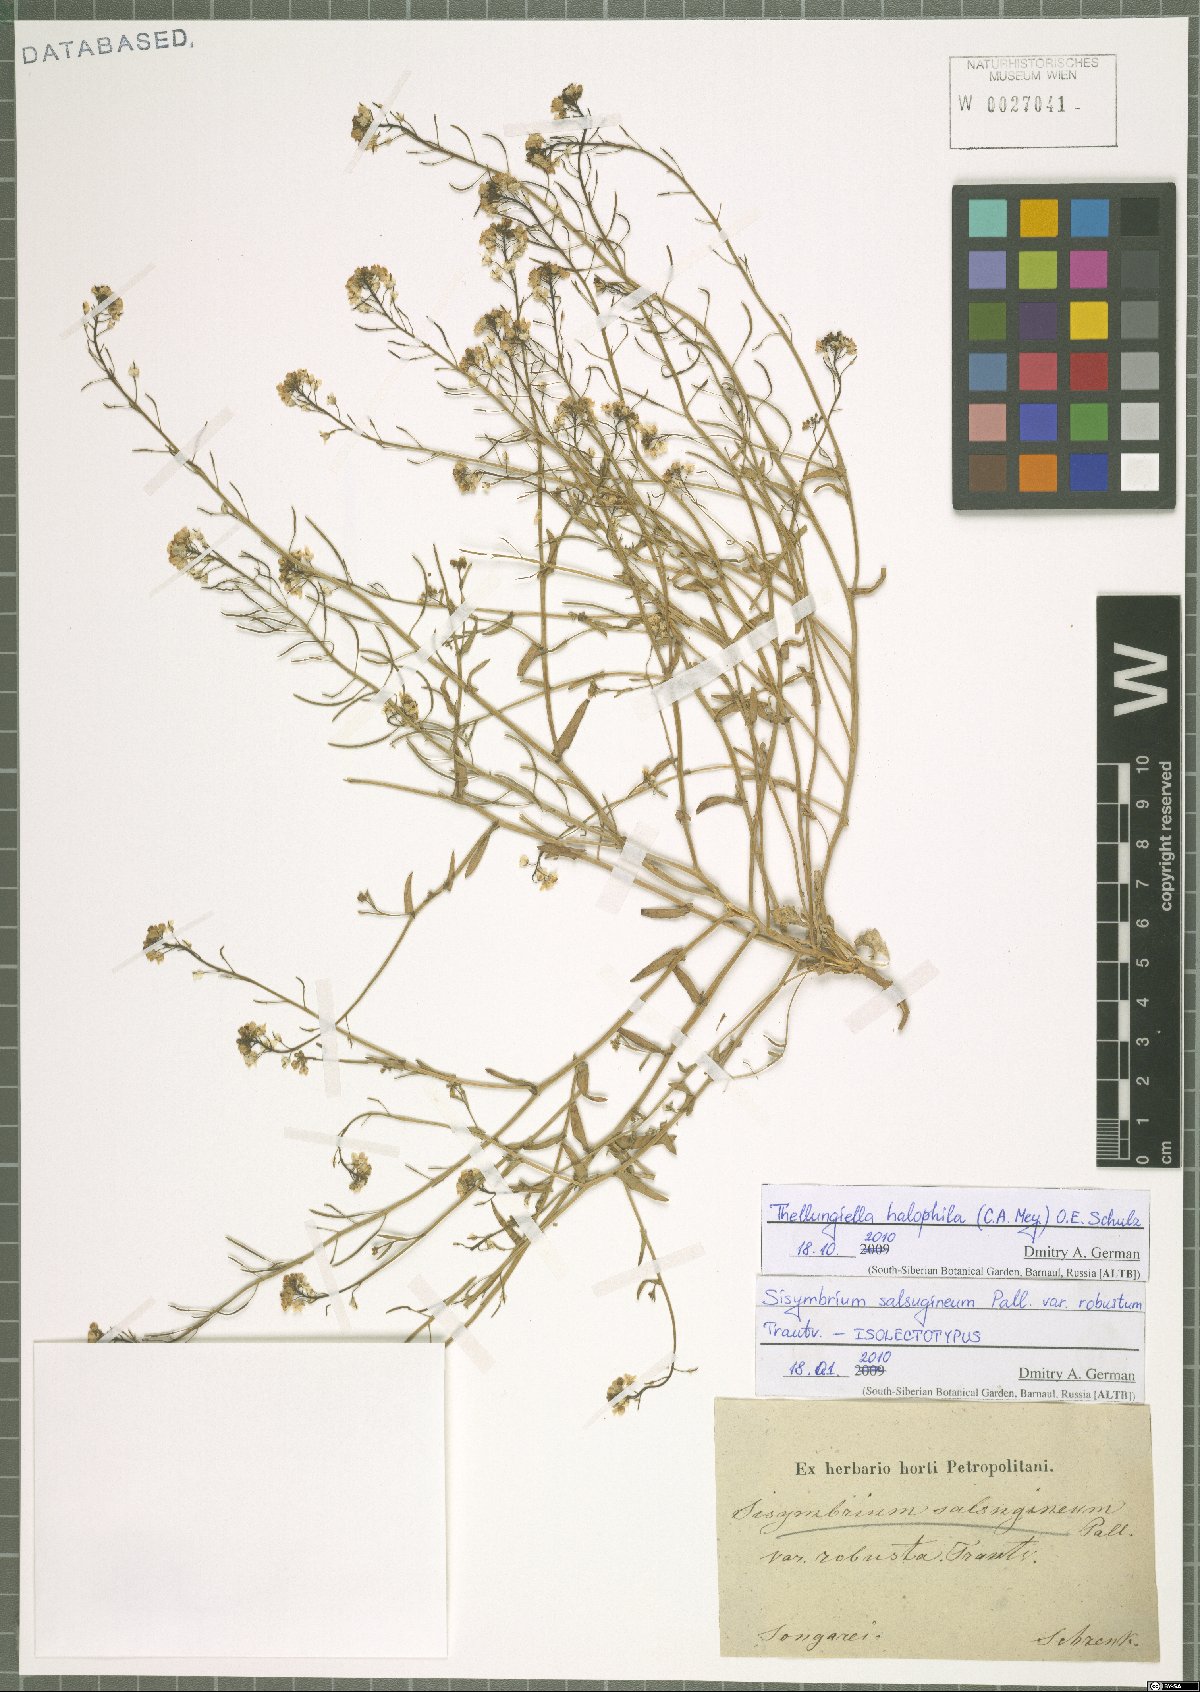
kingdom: Plantae
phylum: Tracheophyta
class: Magnoliopsida
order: Brassicales
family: Brassicaceae
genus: Eutrema
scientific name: Eutrema halophilum
